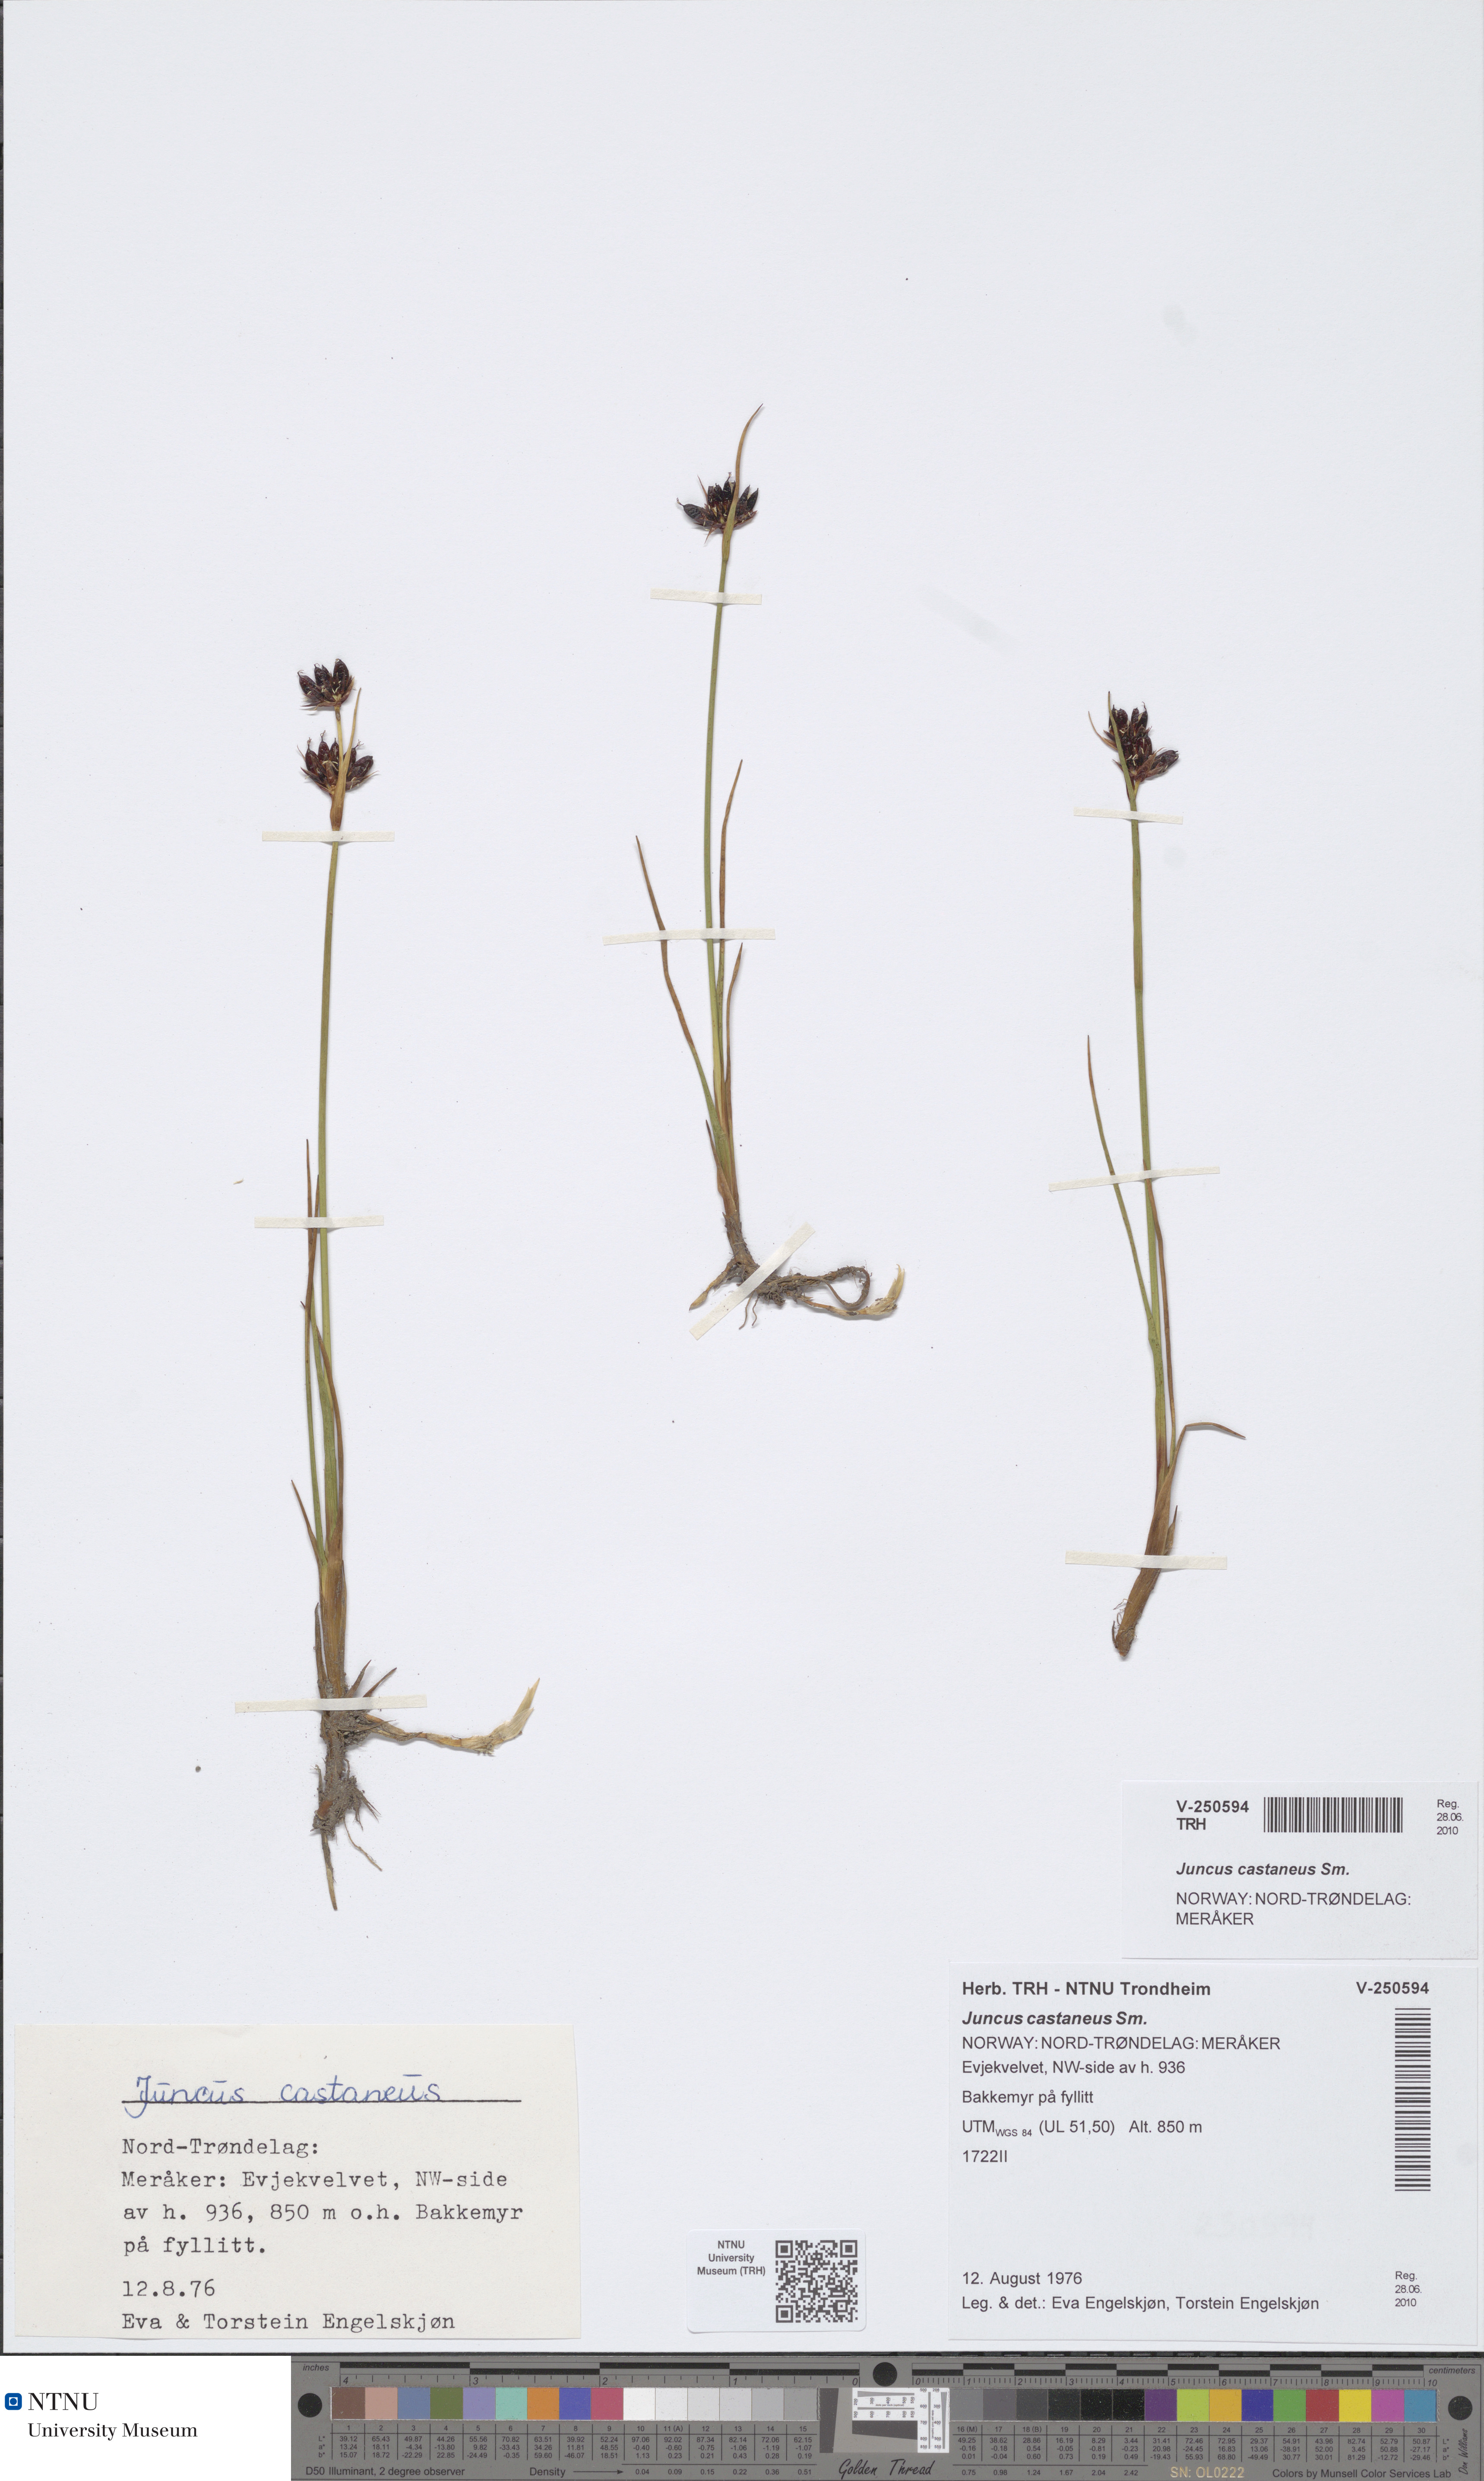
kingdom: Plantae
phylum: Tracheophyta
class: Liliopsida
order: Poales
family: Juncaceae
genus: Juncus
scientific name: Juncus castaneus
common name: Chestnut rush
